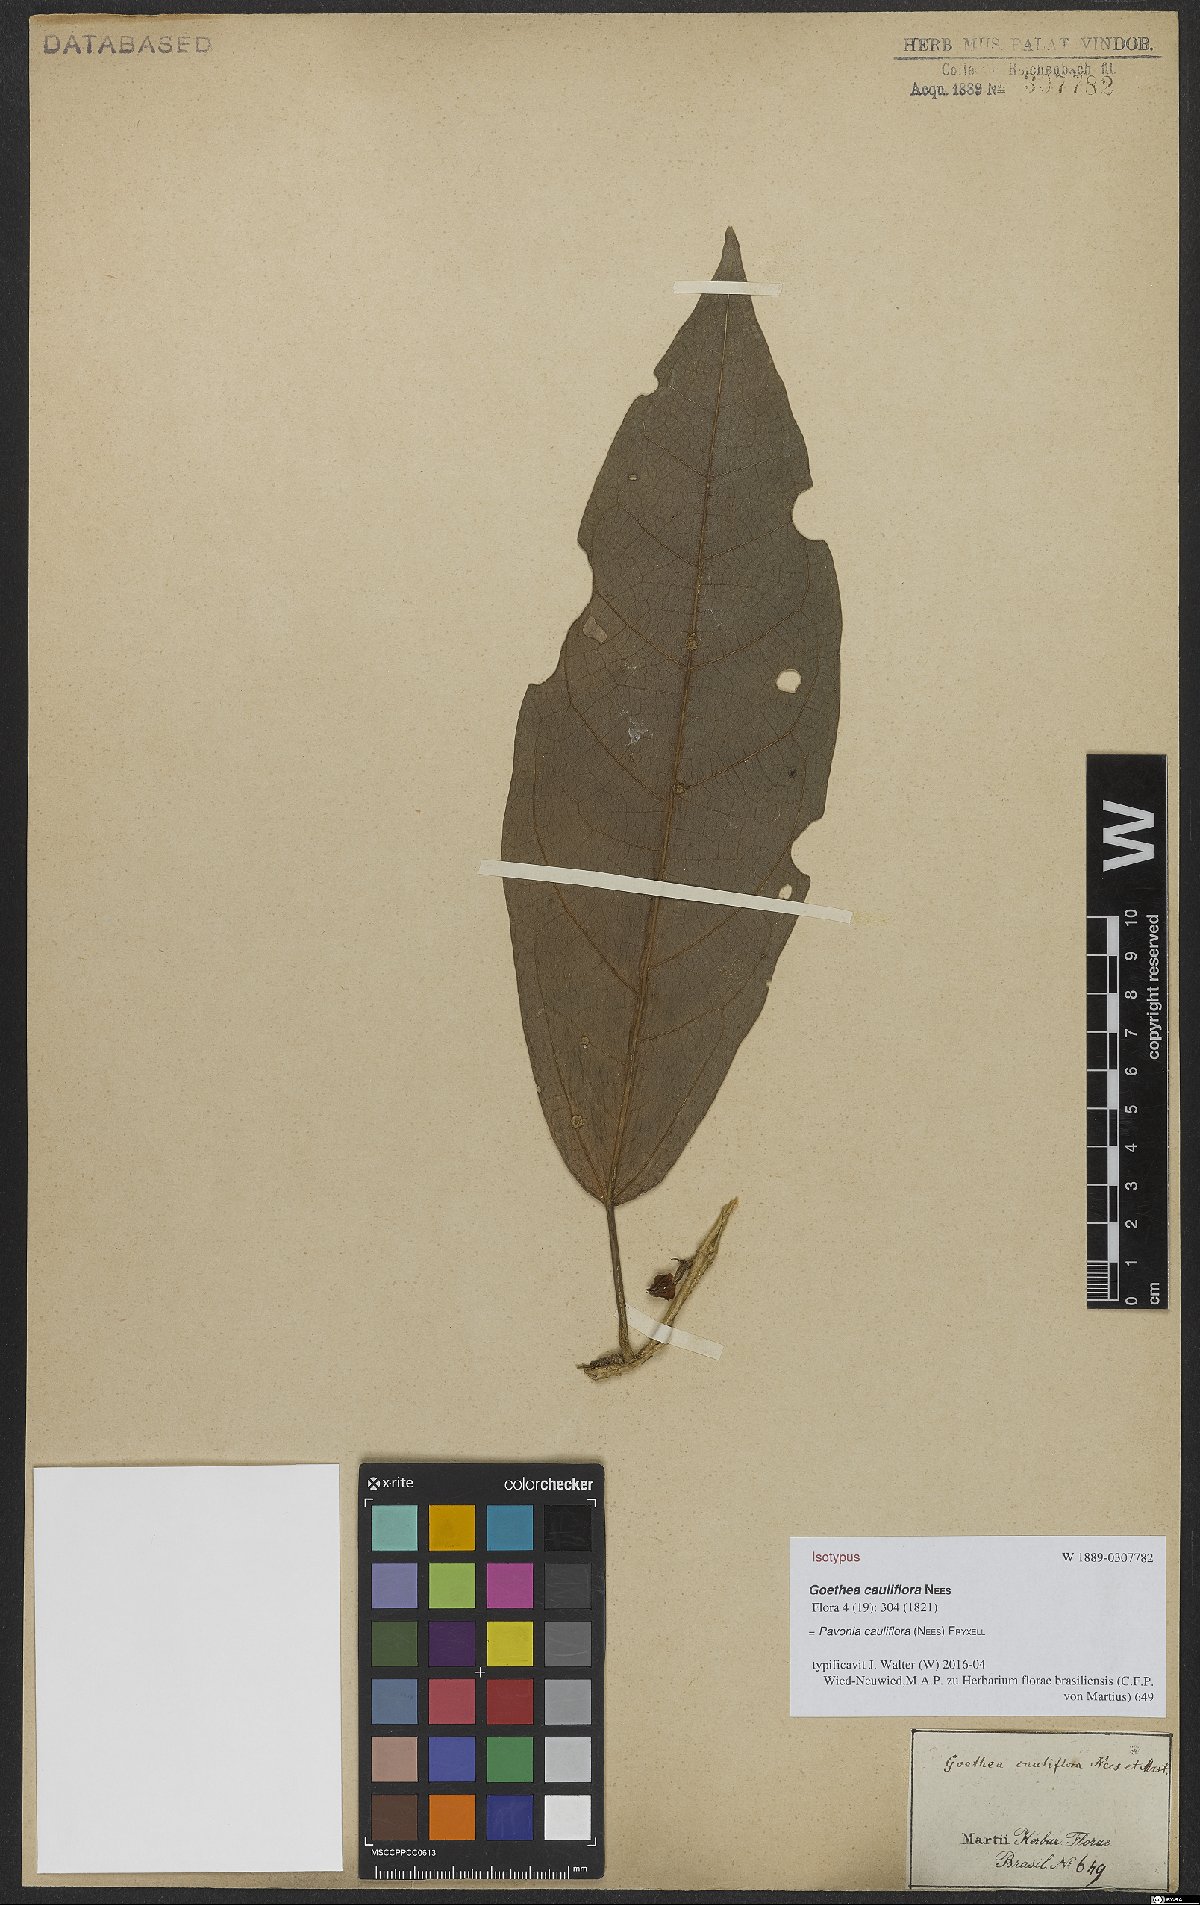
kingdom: Plantae
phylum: Tracheophyta
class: Magnoliopsida
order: Malvales
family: Malvaceae
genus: Pavonia
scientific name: Pavonia cauliflora
